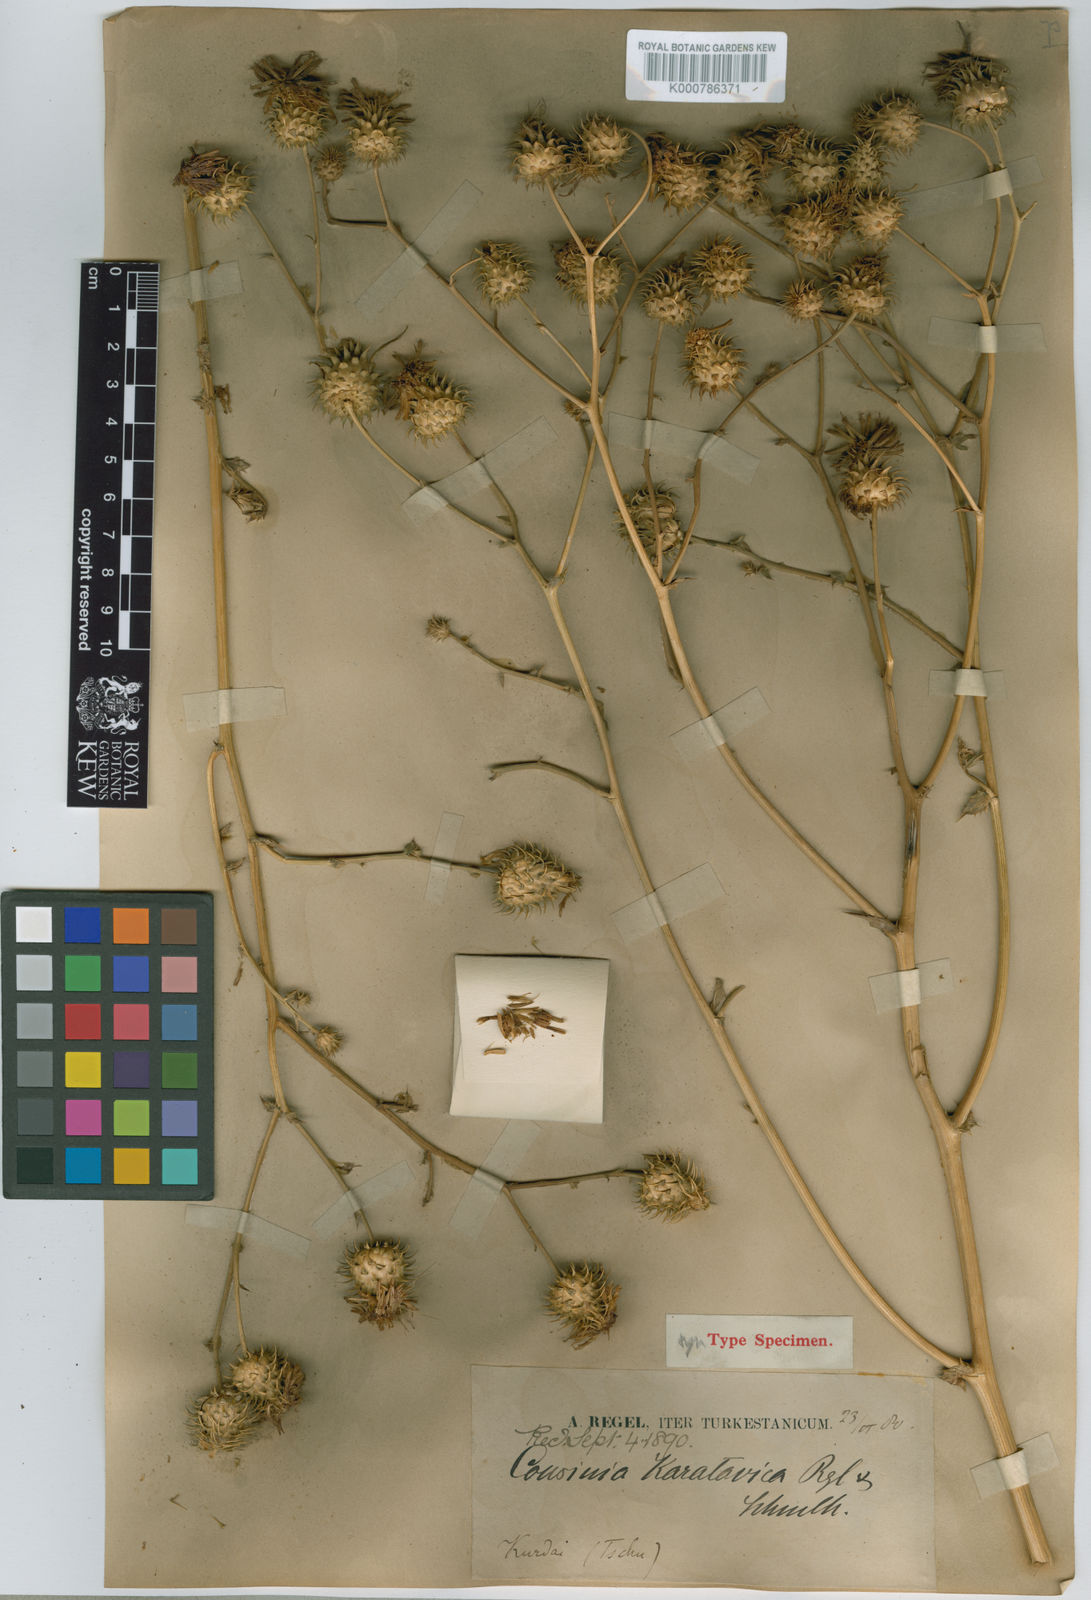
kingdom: Plantae
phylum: Tracheophyta
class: Magnoliopsida
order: Asterales
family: Asteraceae
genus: Arctium
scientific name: Arctium karatavicum
